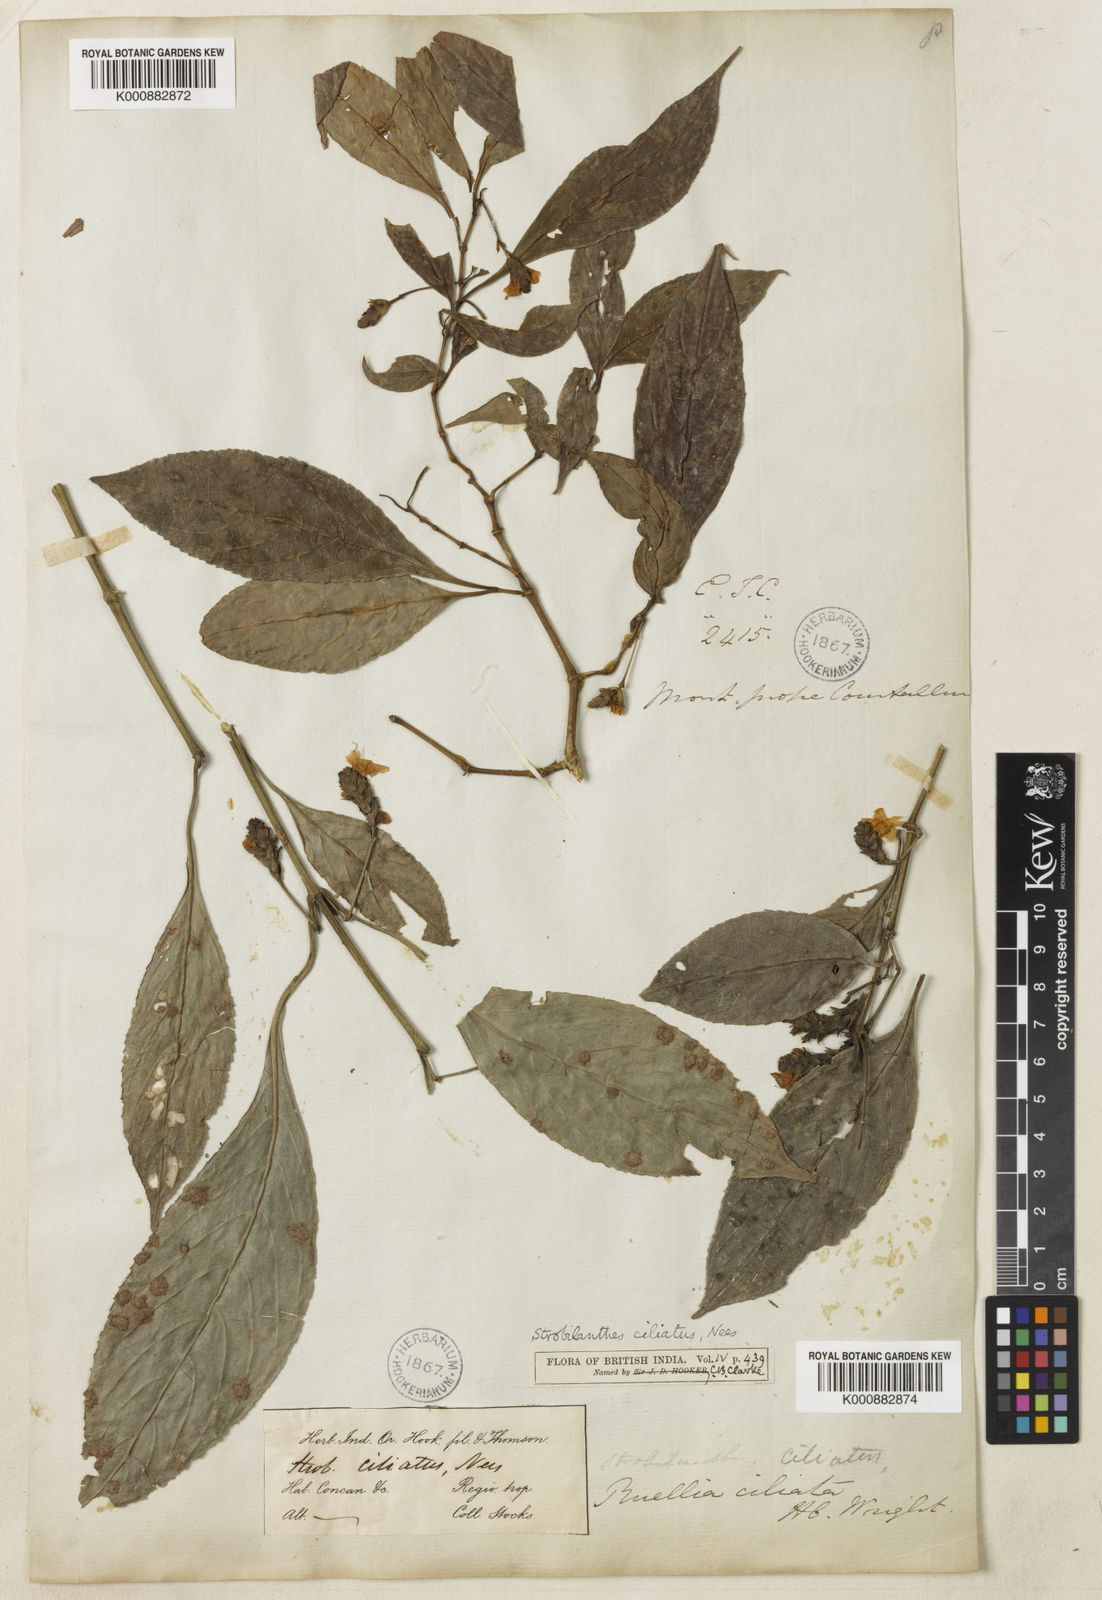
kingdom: Plantae
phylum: Tracheophyta
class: Magnoliopsida
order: Lamiales
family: Acanthaceae
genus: Strobilanthes
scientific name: Strobilanthes ciliata
